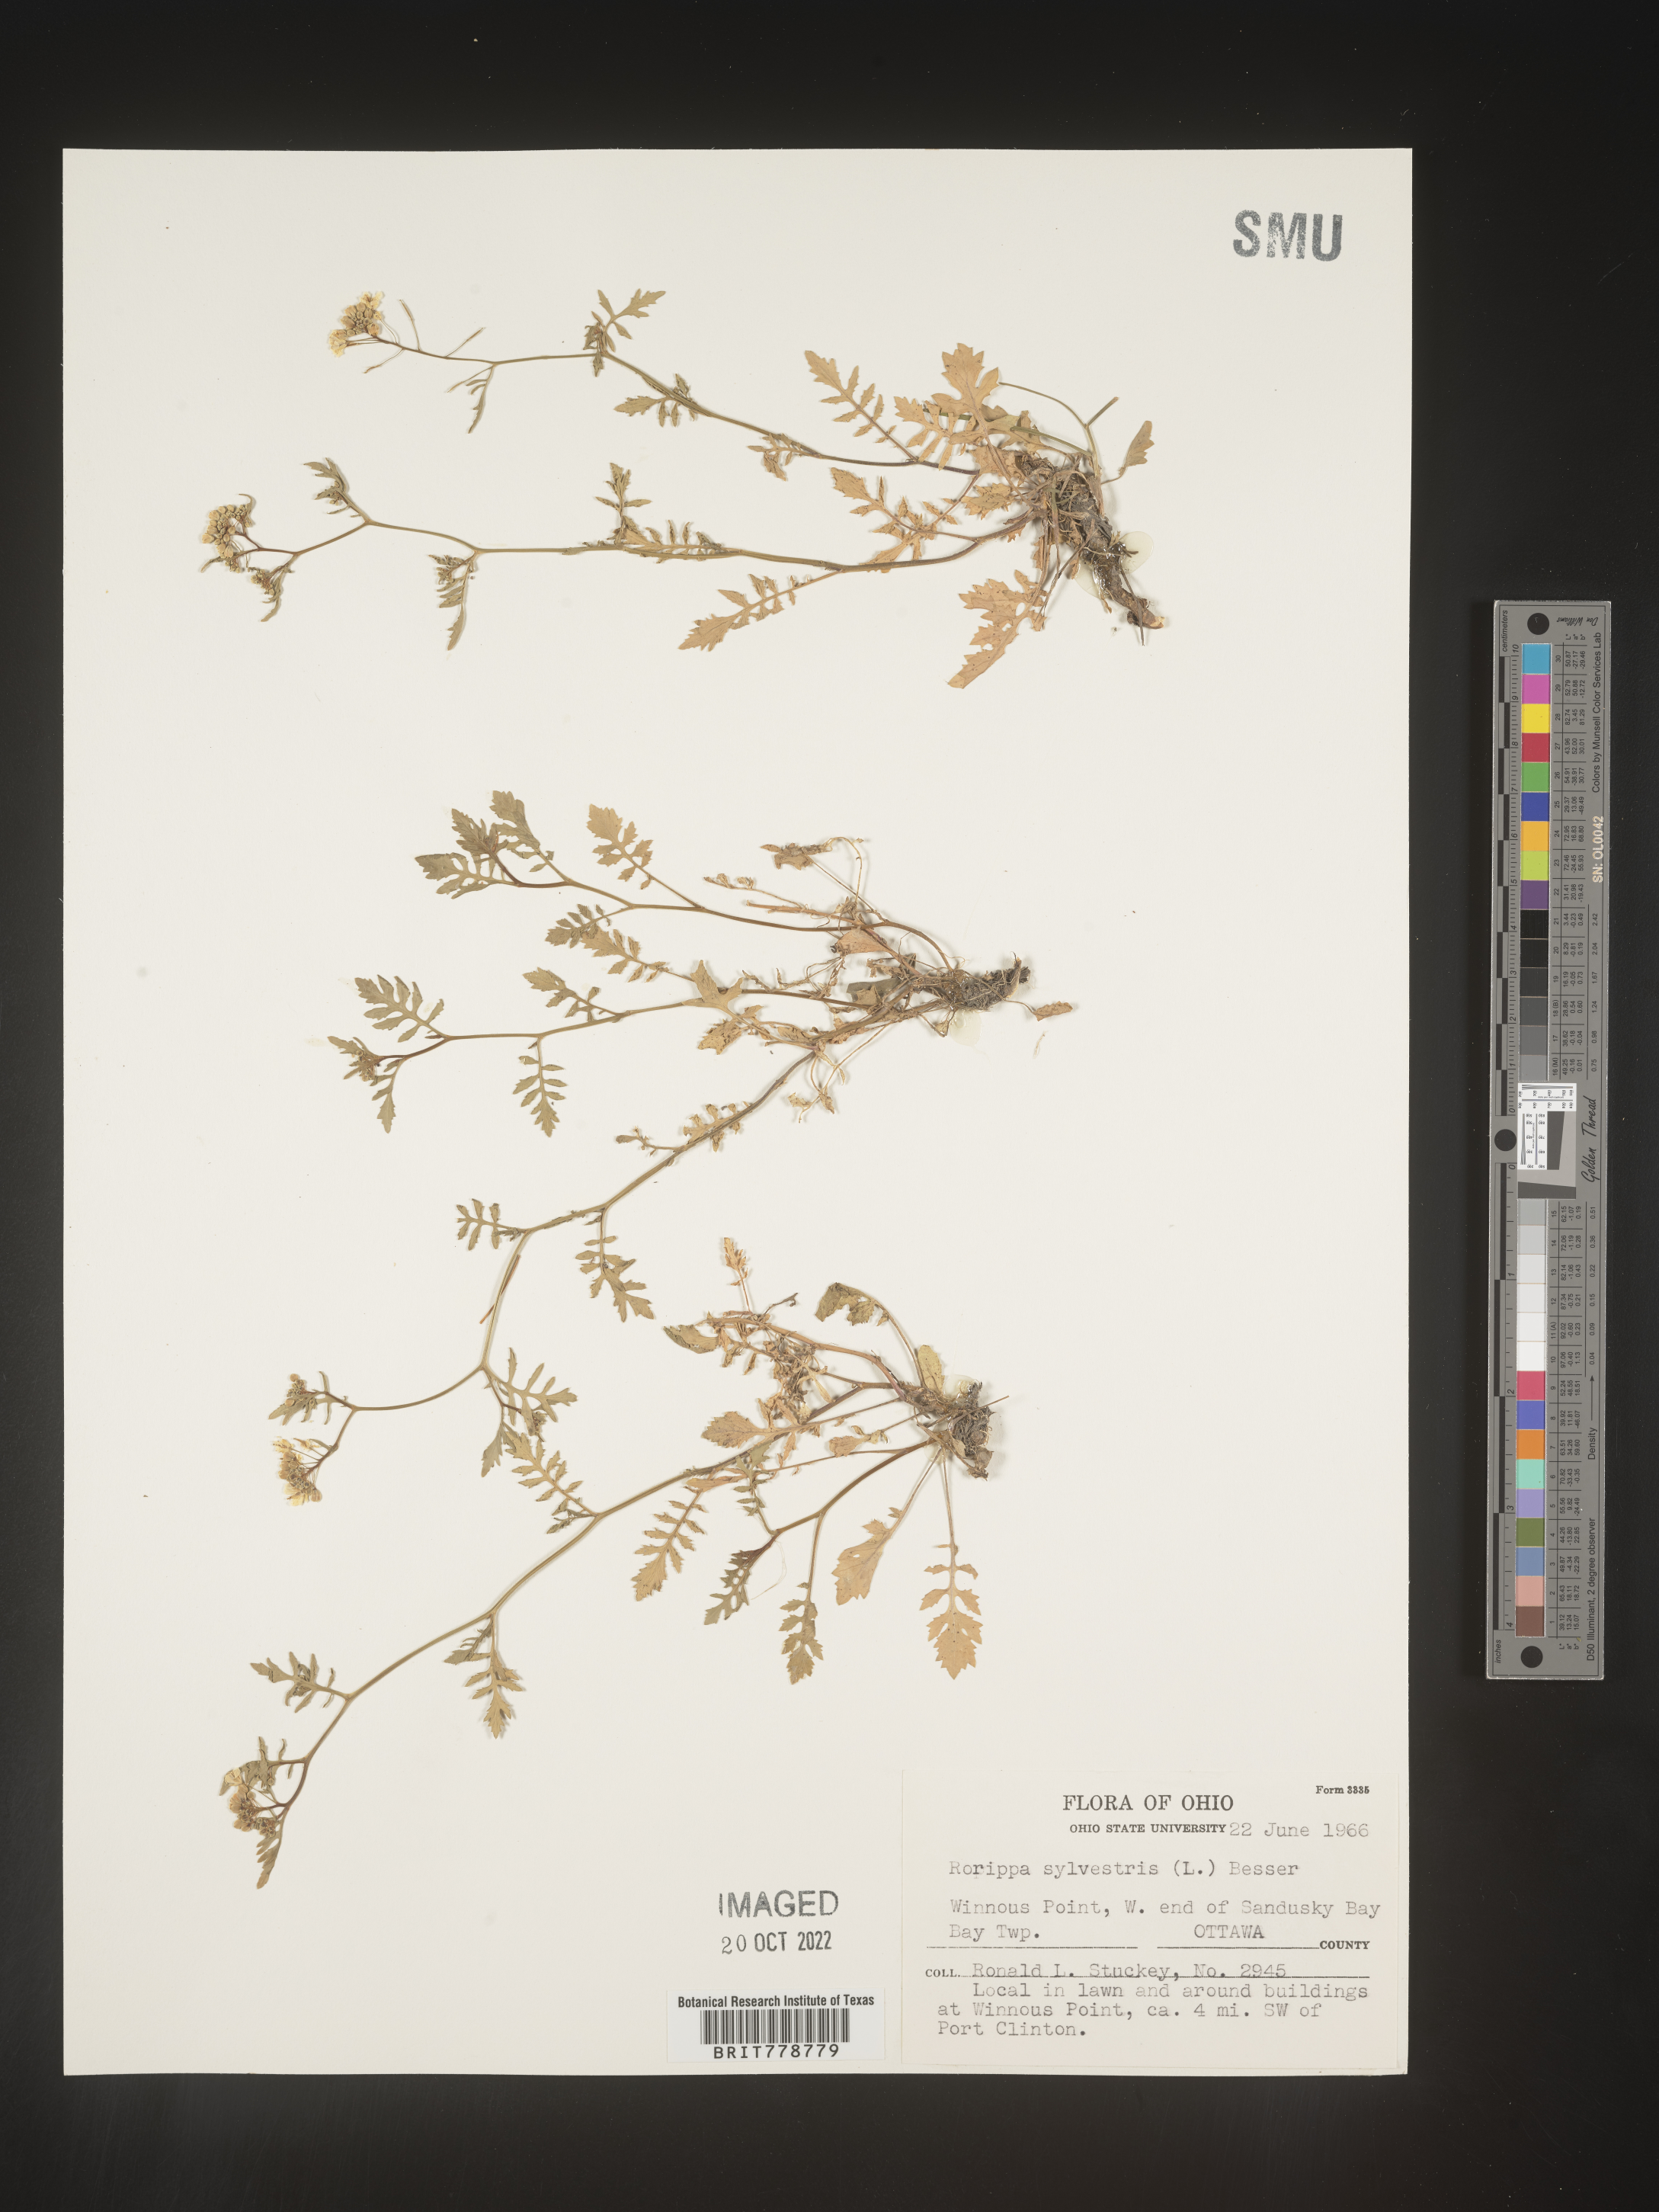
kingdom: Plantae
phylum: Tracheophyta
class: Magnoliopsida
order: Brassicales
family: Brassicaceae
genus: Rorippa
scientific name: Rorippa sylvestris
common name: Creeping yellowcress
